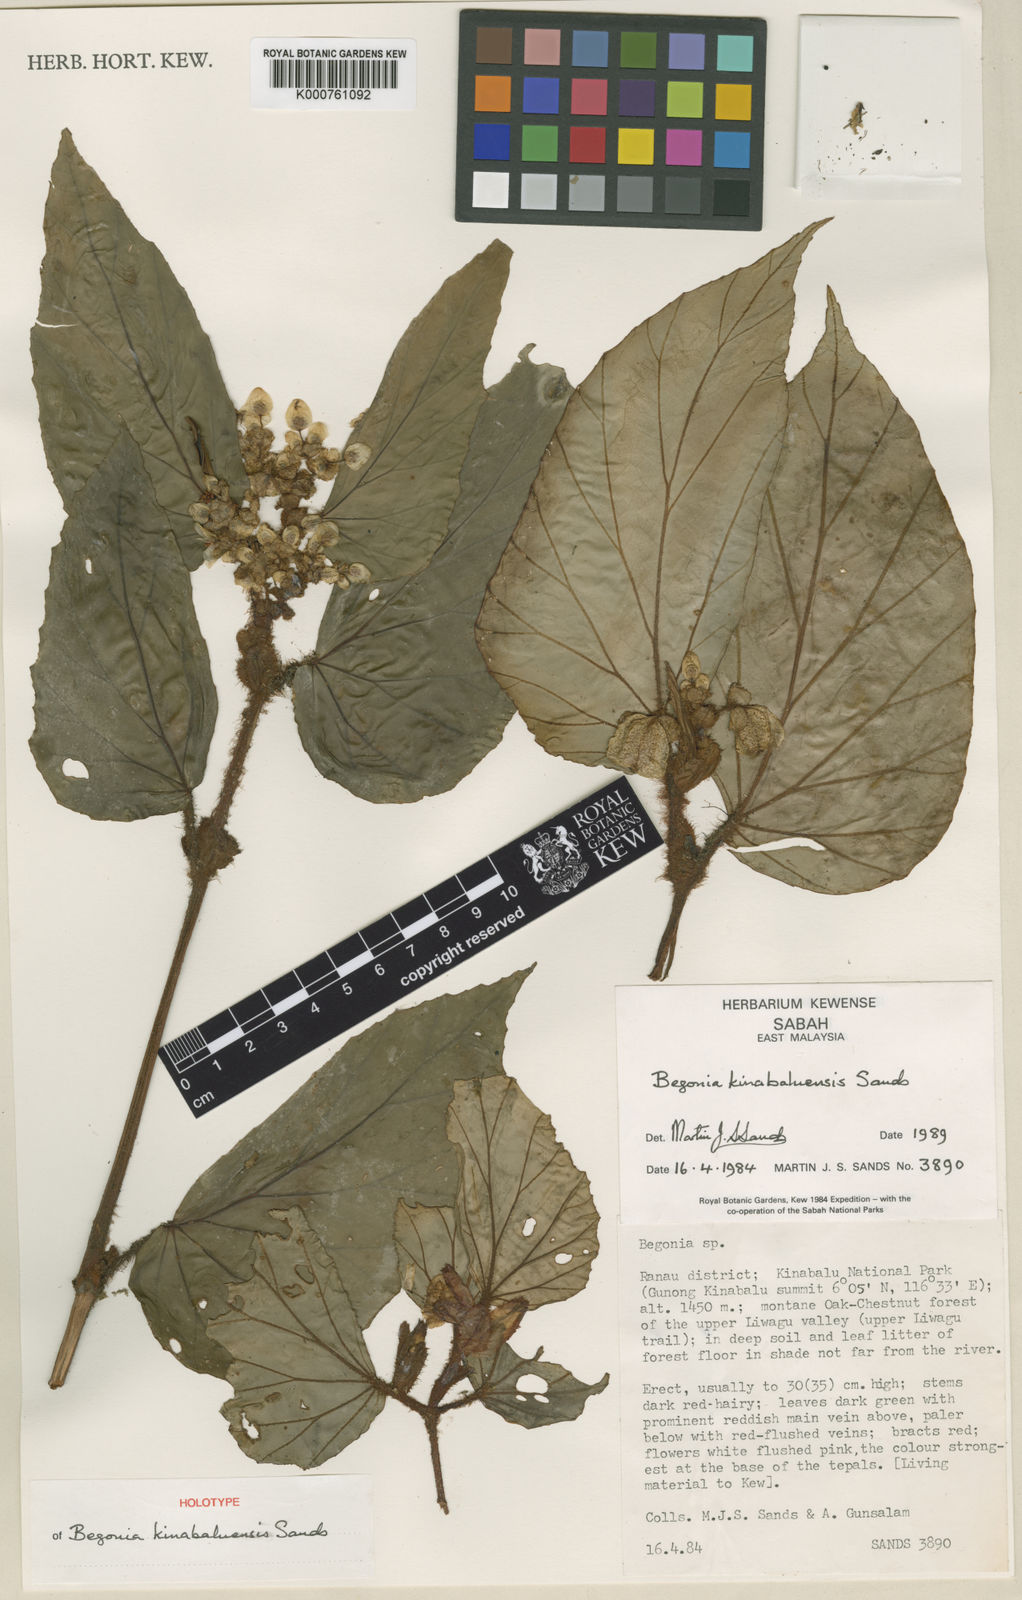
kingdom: Plantae
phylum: Tracheophyta
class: Magnoliopsida
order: Cucurbitales
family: Begoniaceae
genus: Begonia
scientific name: Begonia kinabaluensis
